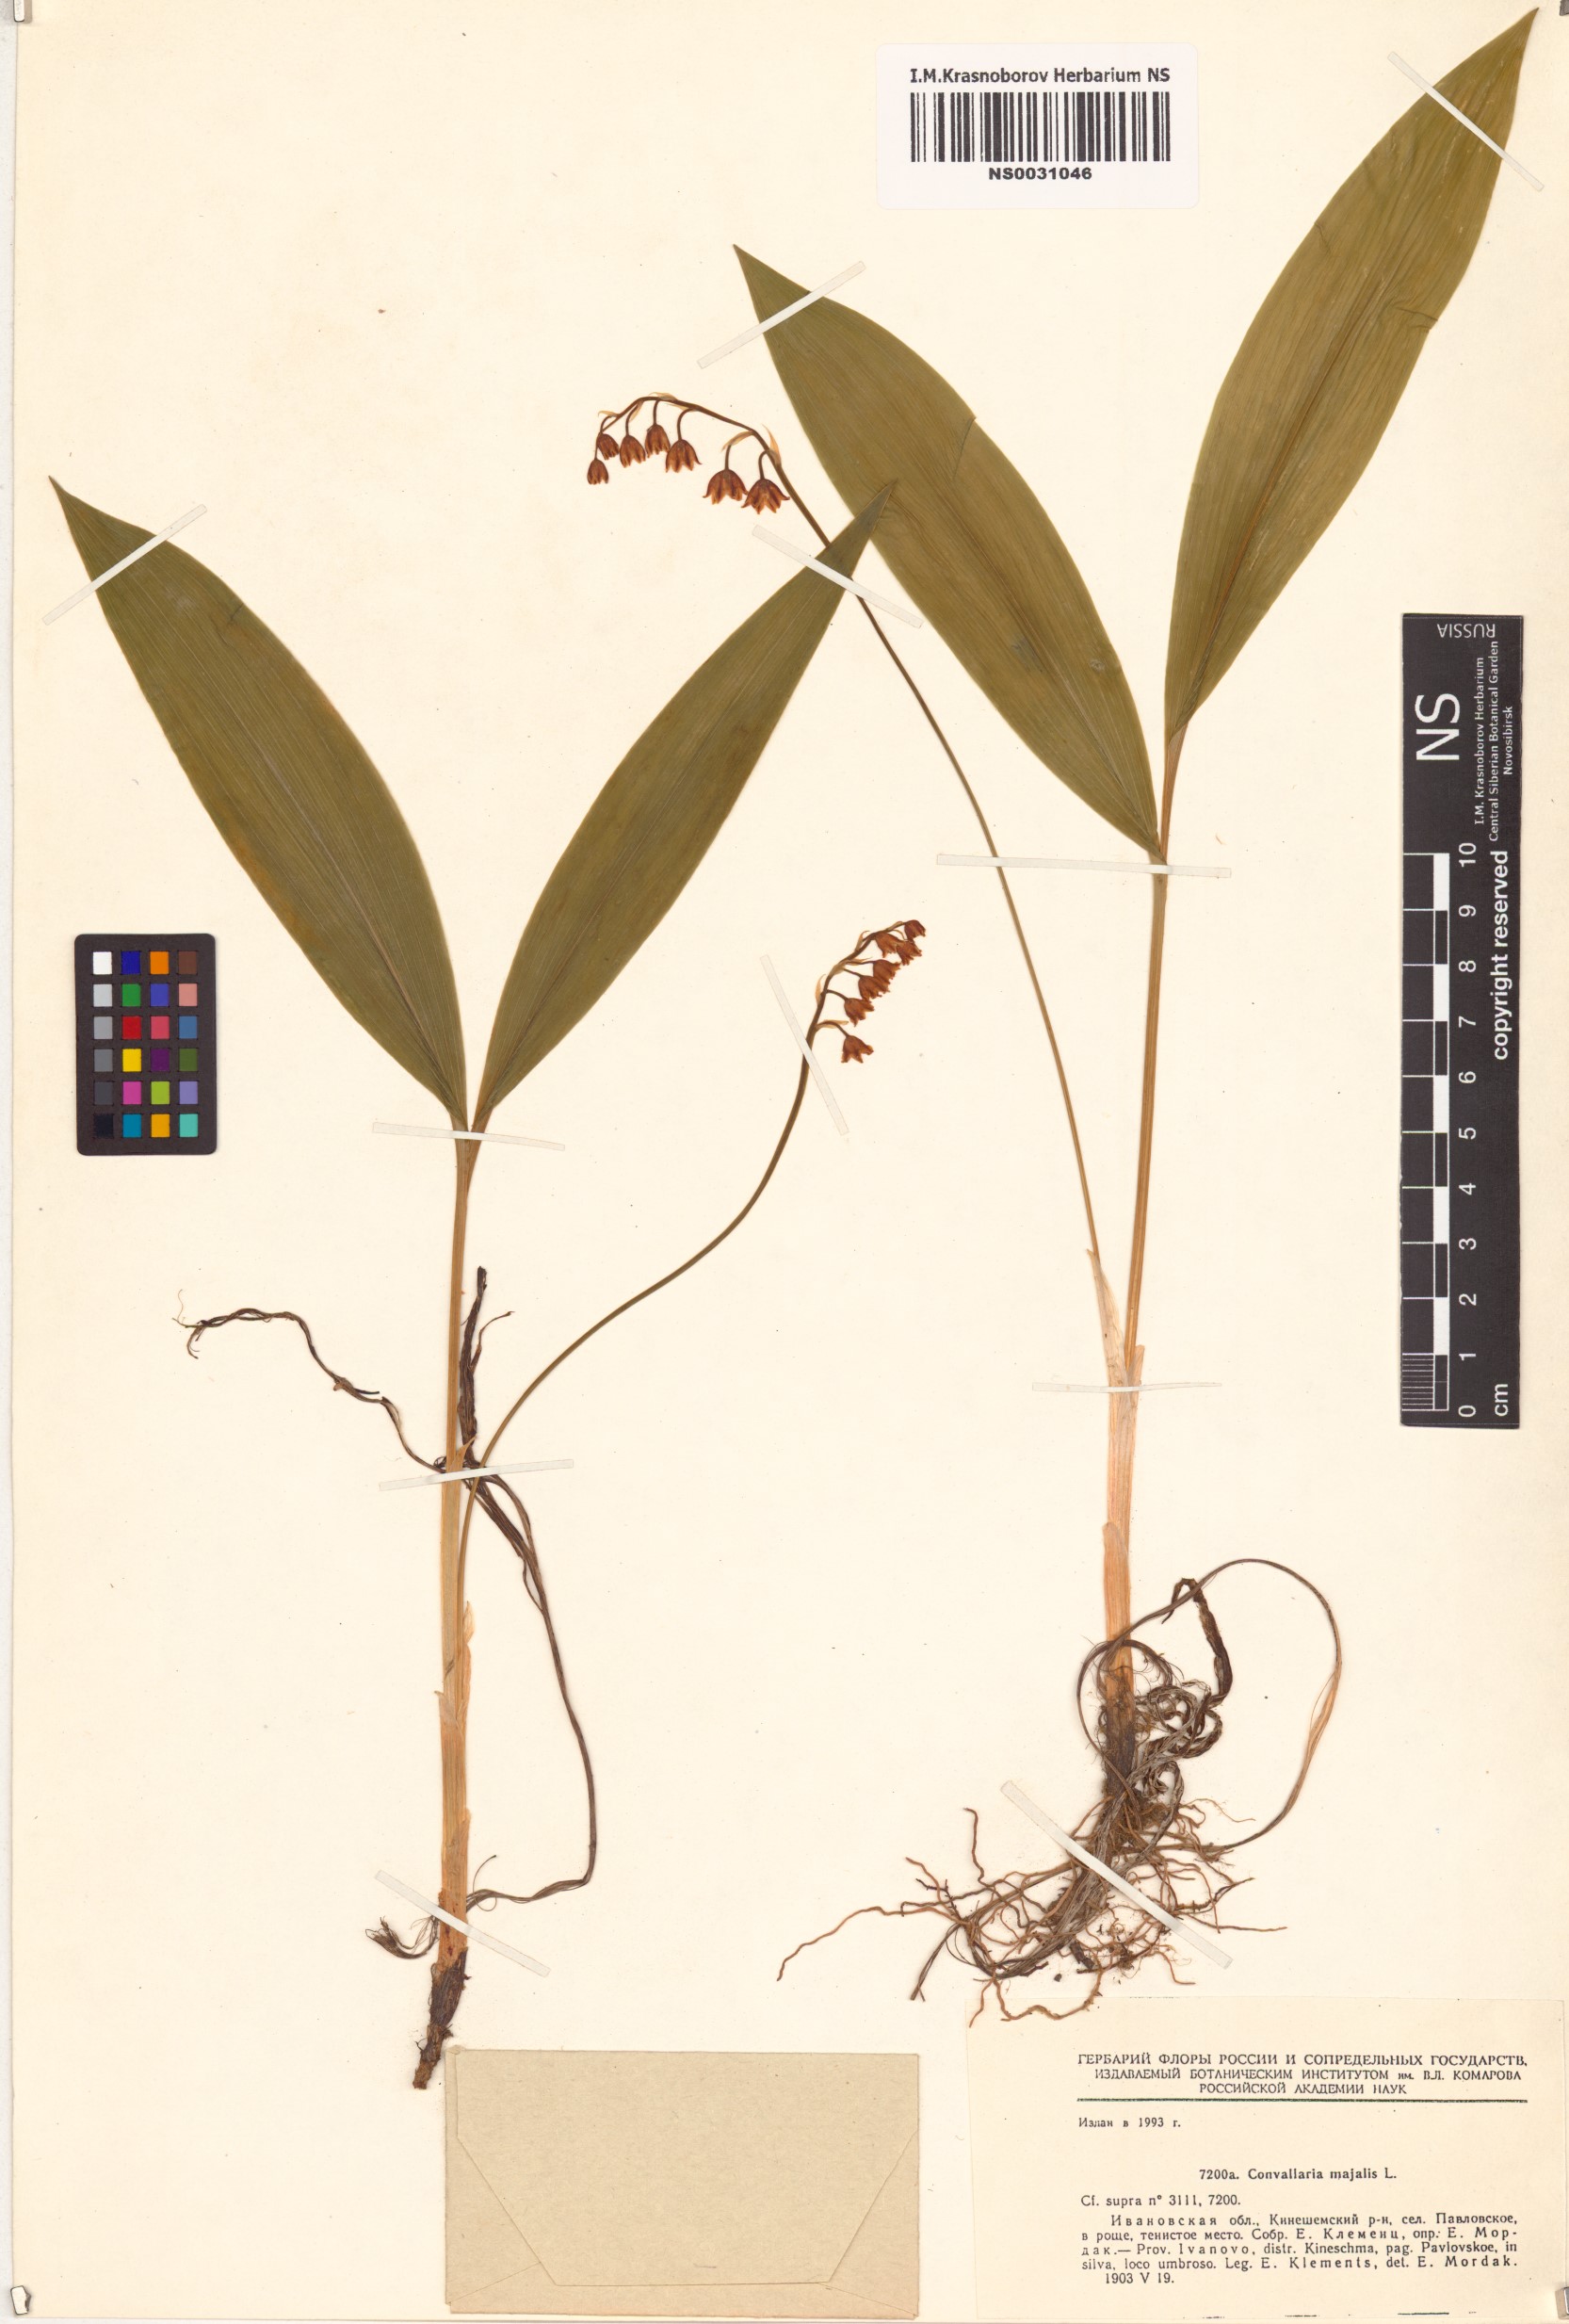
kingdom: Plantae
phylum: Tracheophyta
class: Liliopsida
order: Asparagales
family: Asparagaceae
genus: Convallaria
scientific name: Convallaria majalis
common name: Lily-of-the-valley
